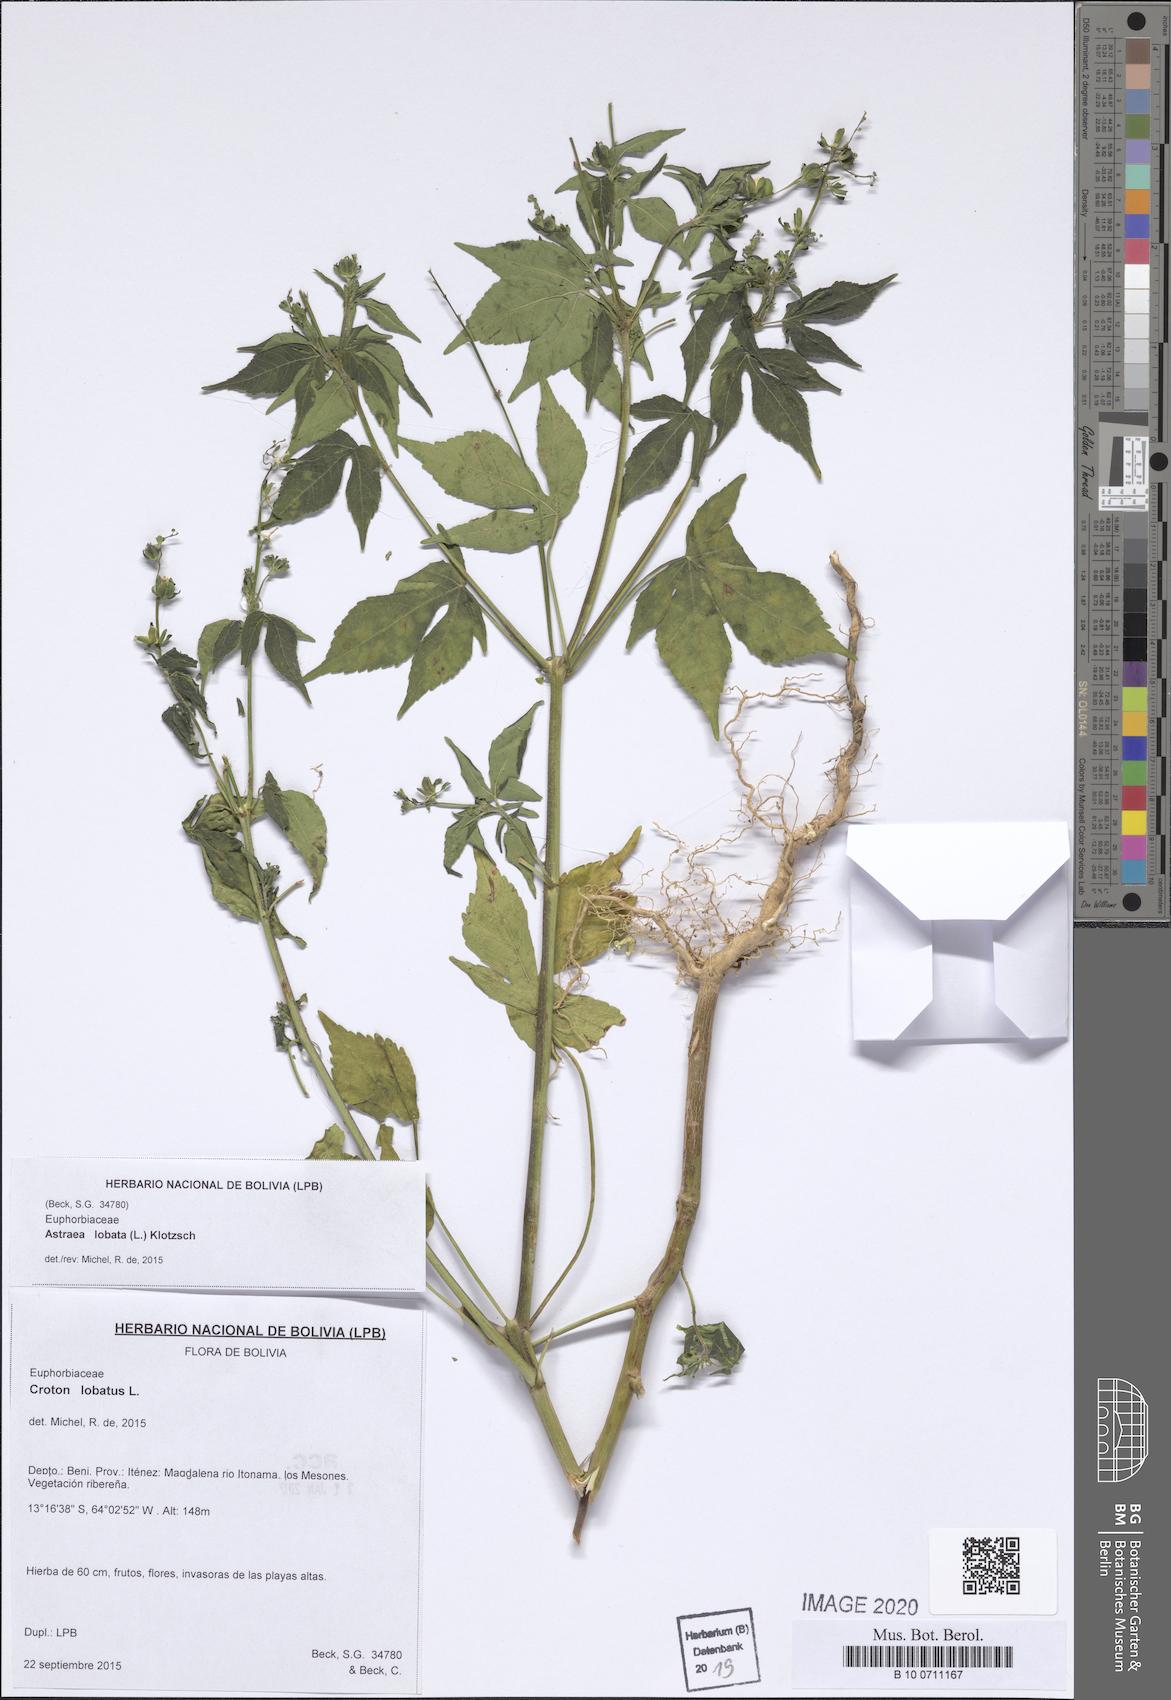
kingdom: Plantae
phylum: Tracheophyta
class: Magnoliopsida
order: Malpighiales
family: Euphorbiaceae
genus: Astraea
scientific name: Astraea lobata
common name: Lobed croton
